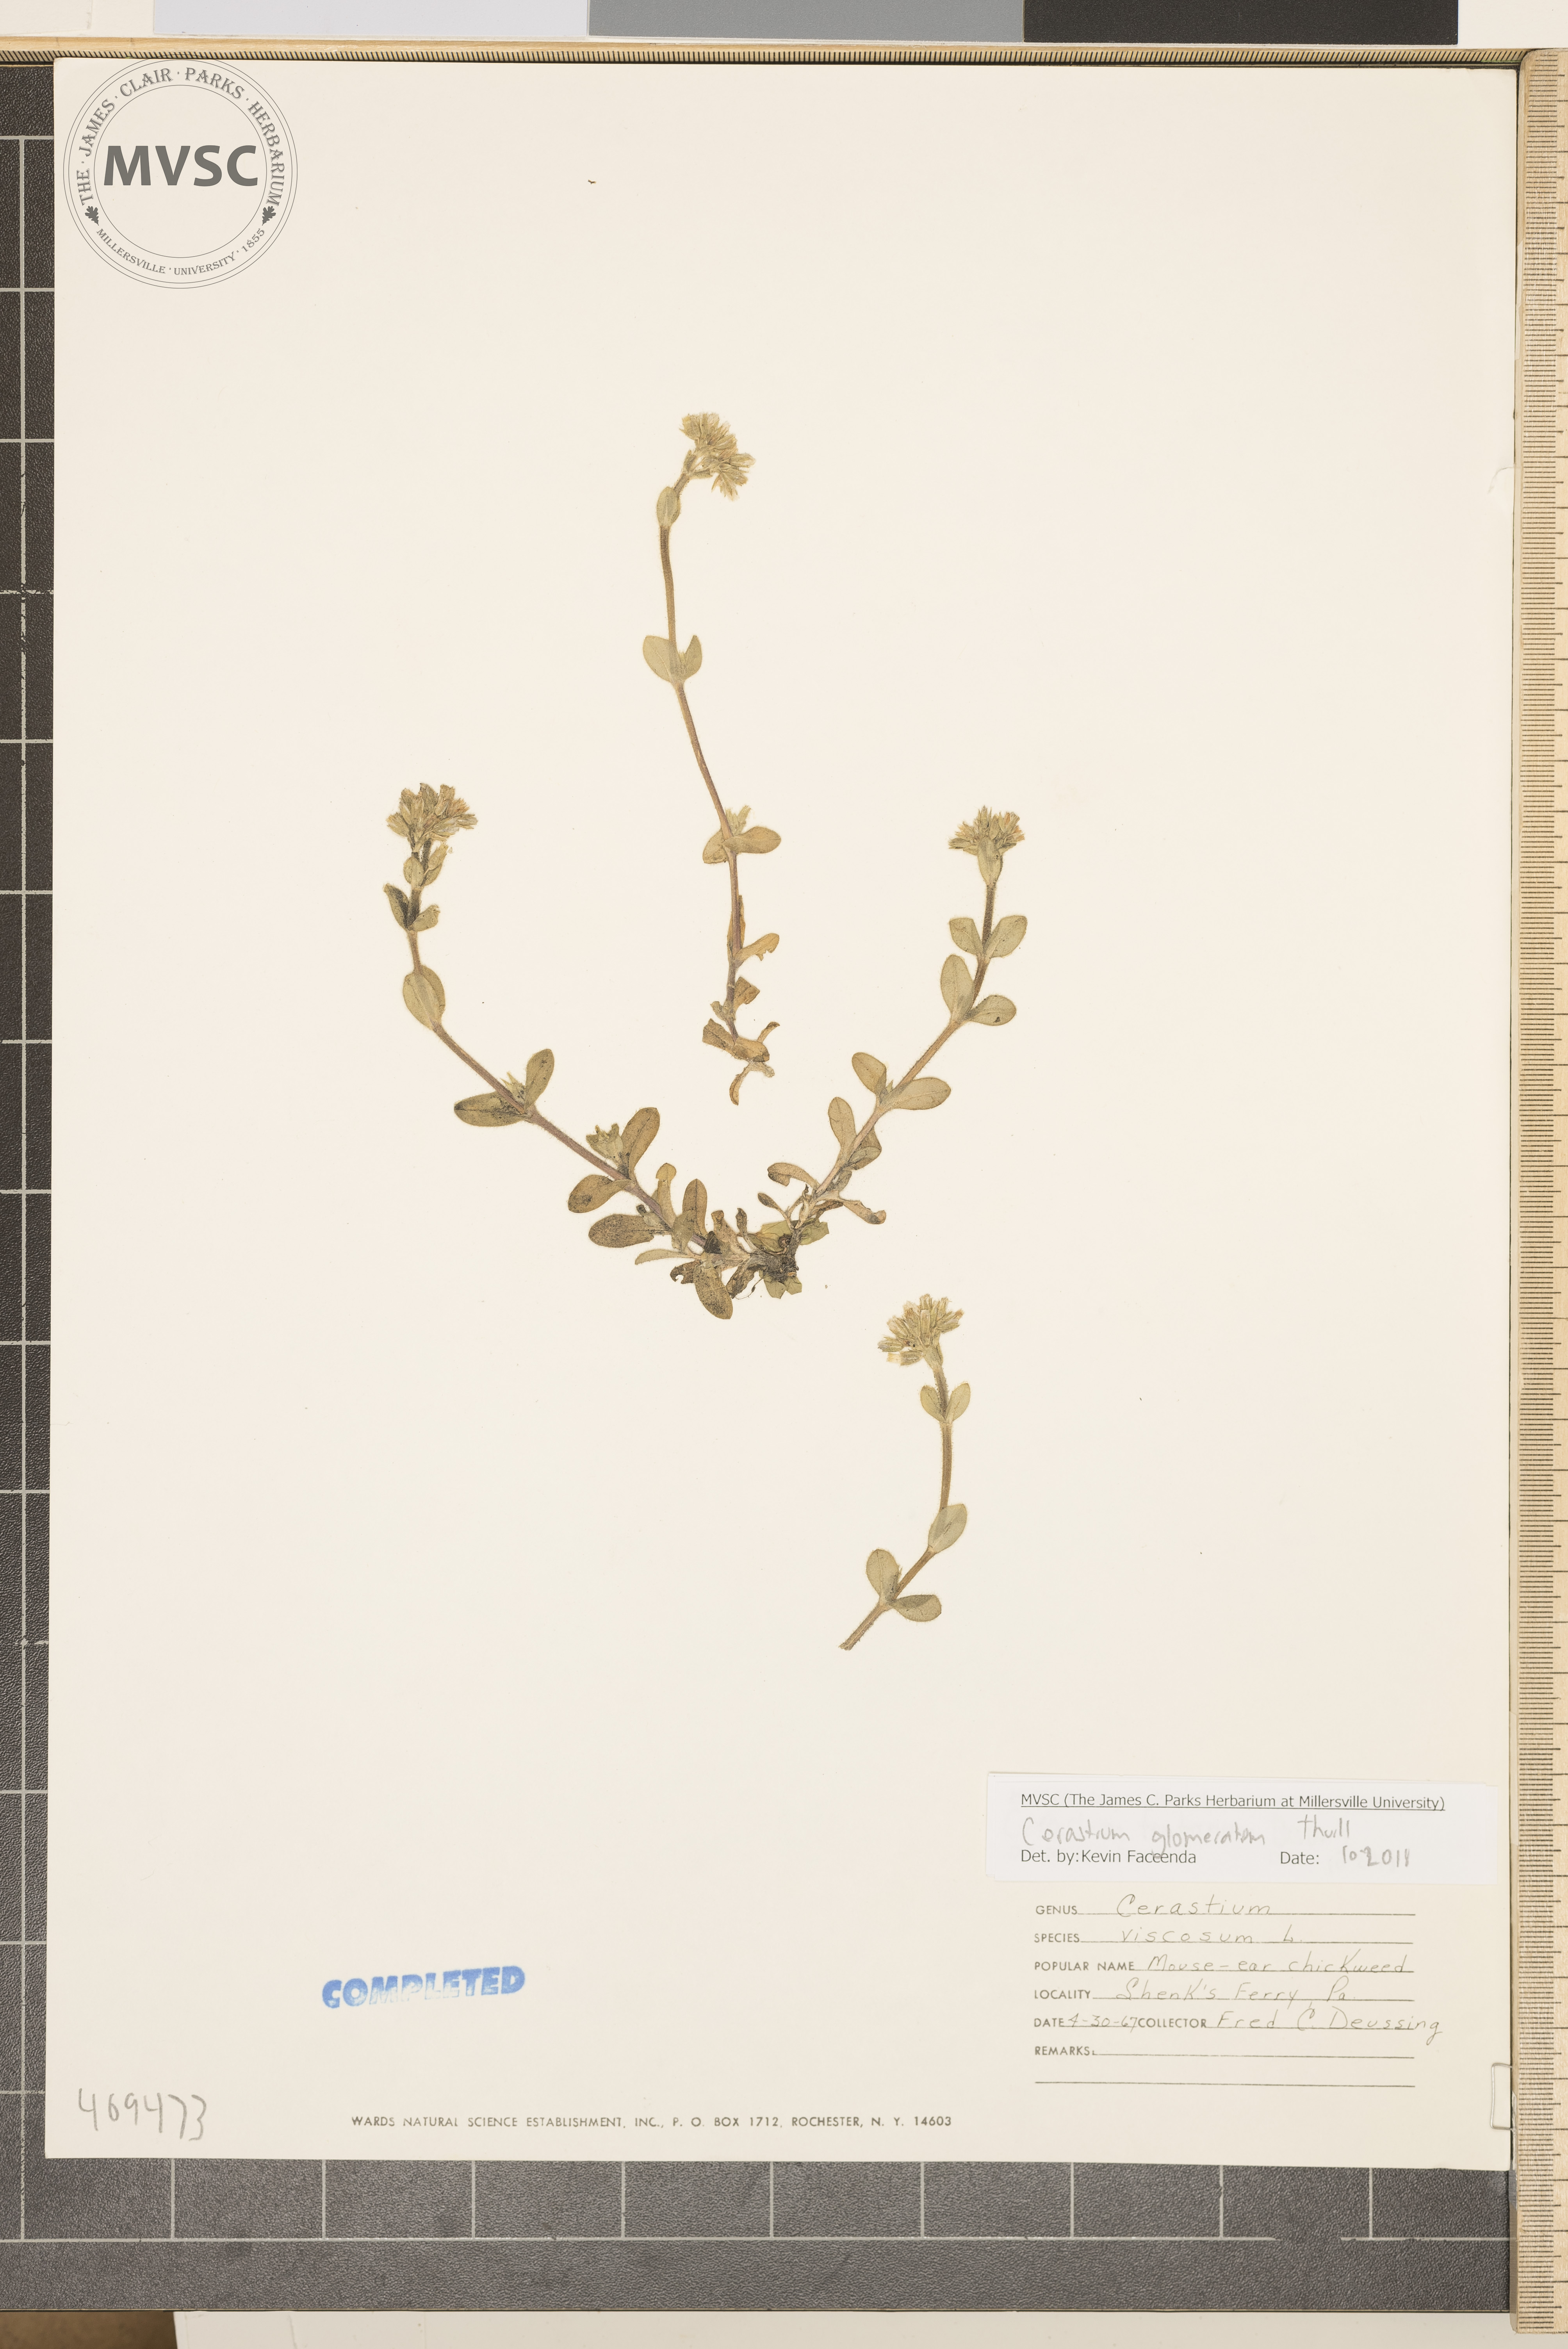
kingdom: Plantae
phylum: Tracheophyta
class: Magnoliopsida
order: Caryophyllales
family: Caryophyllaceae
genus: Cerastium
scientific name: Cerastium glomeratum
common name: Sticky chickweed
